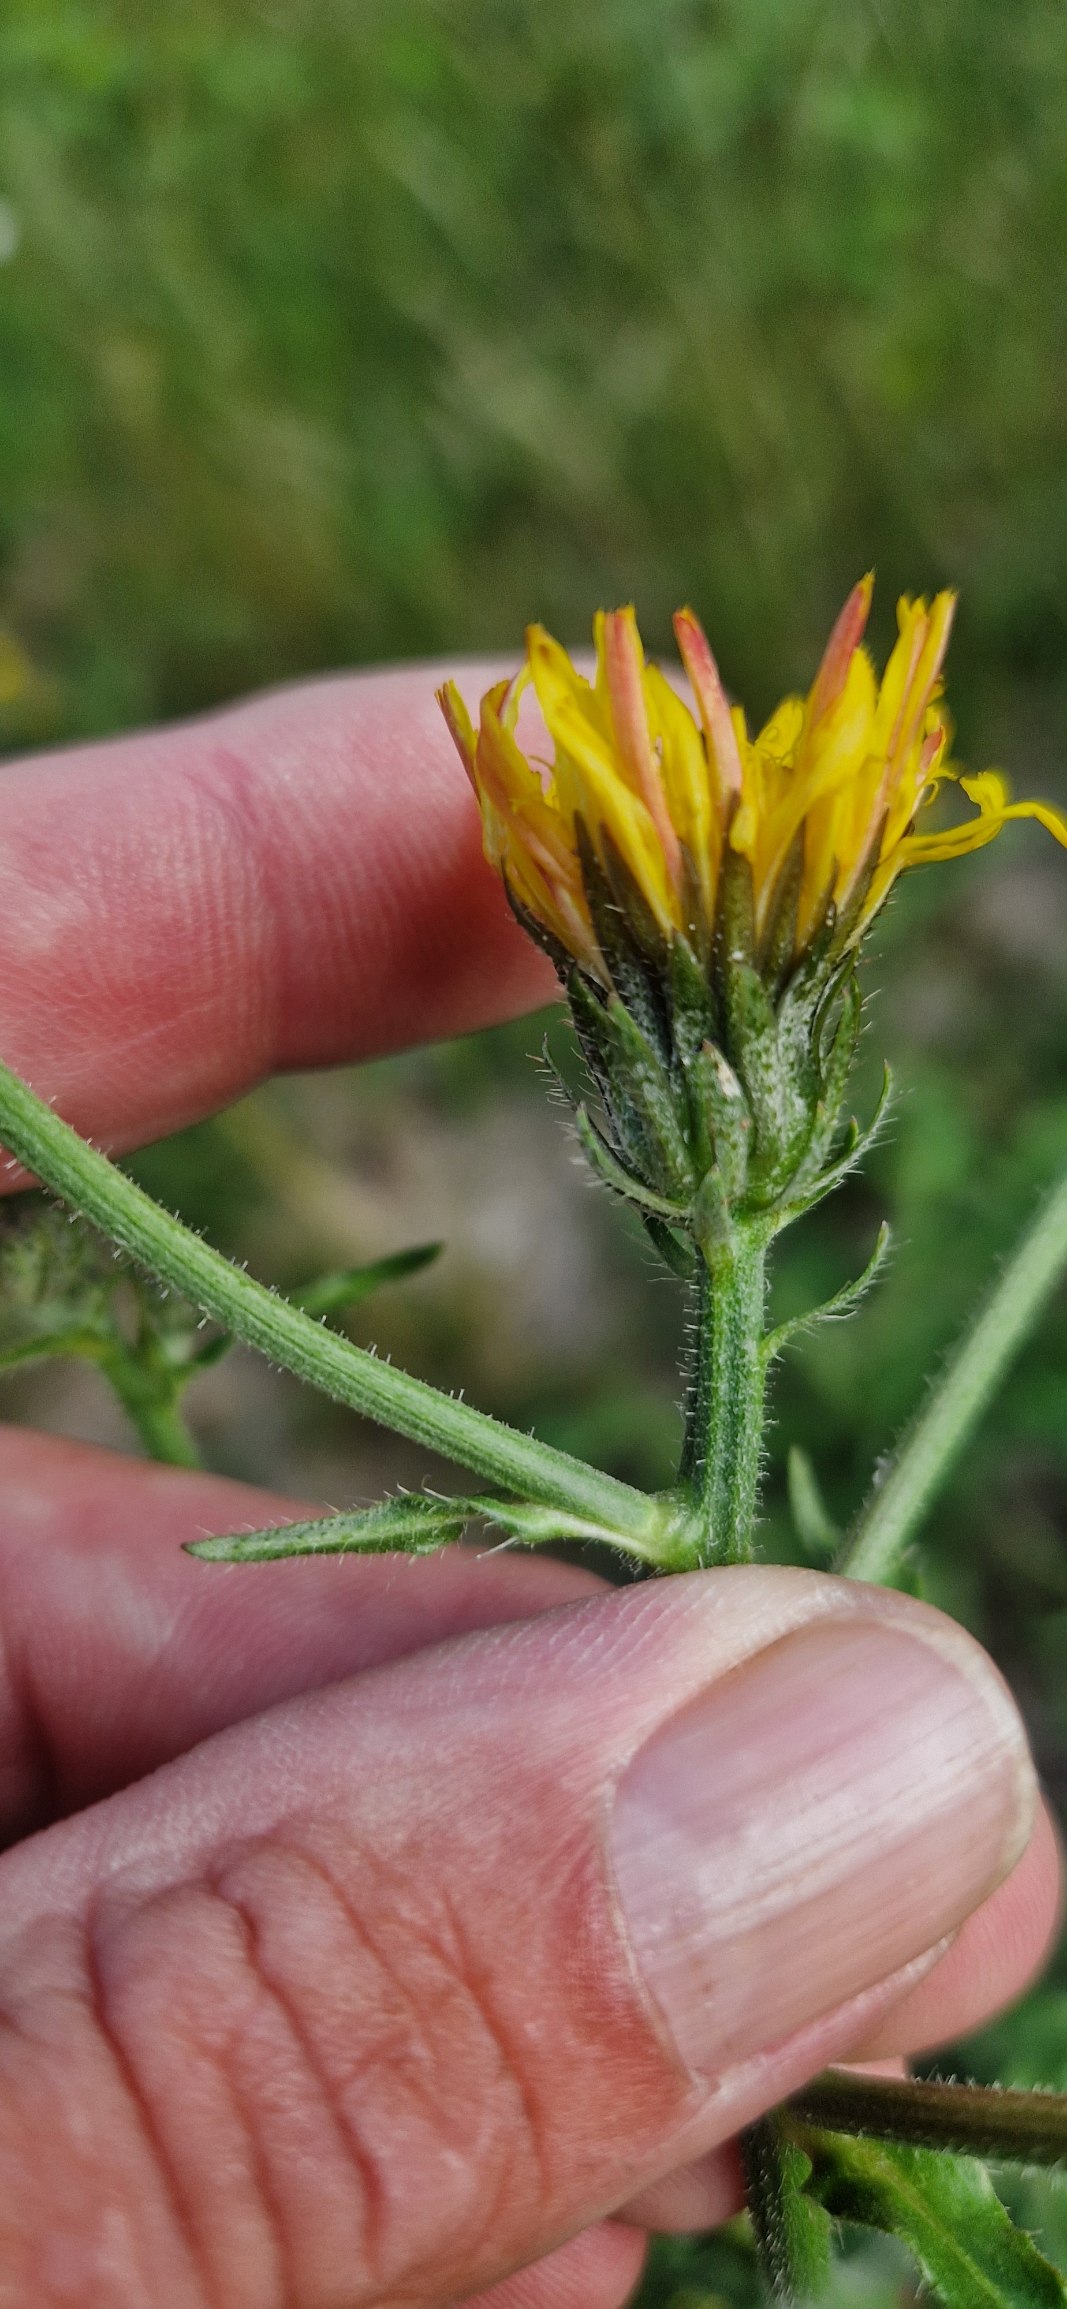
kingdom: Plantae
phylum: Tracheophyta
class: Magnoliopsida
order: Asterales
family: Asteraceae
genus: Picris
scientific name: Picris hieracioides
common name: Ru bittermælk
